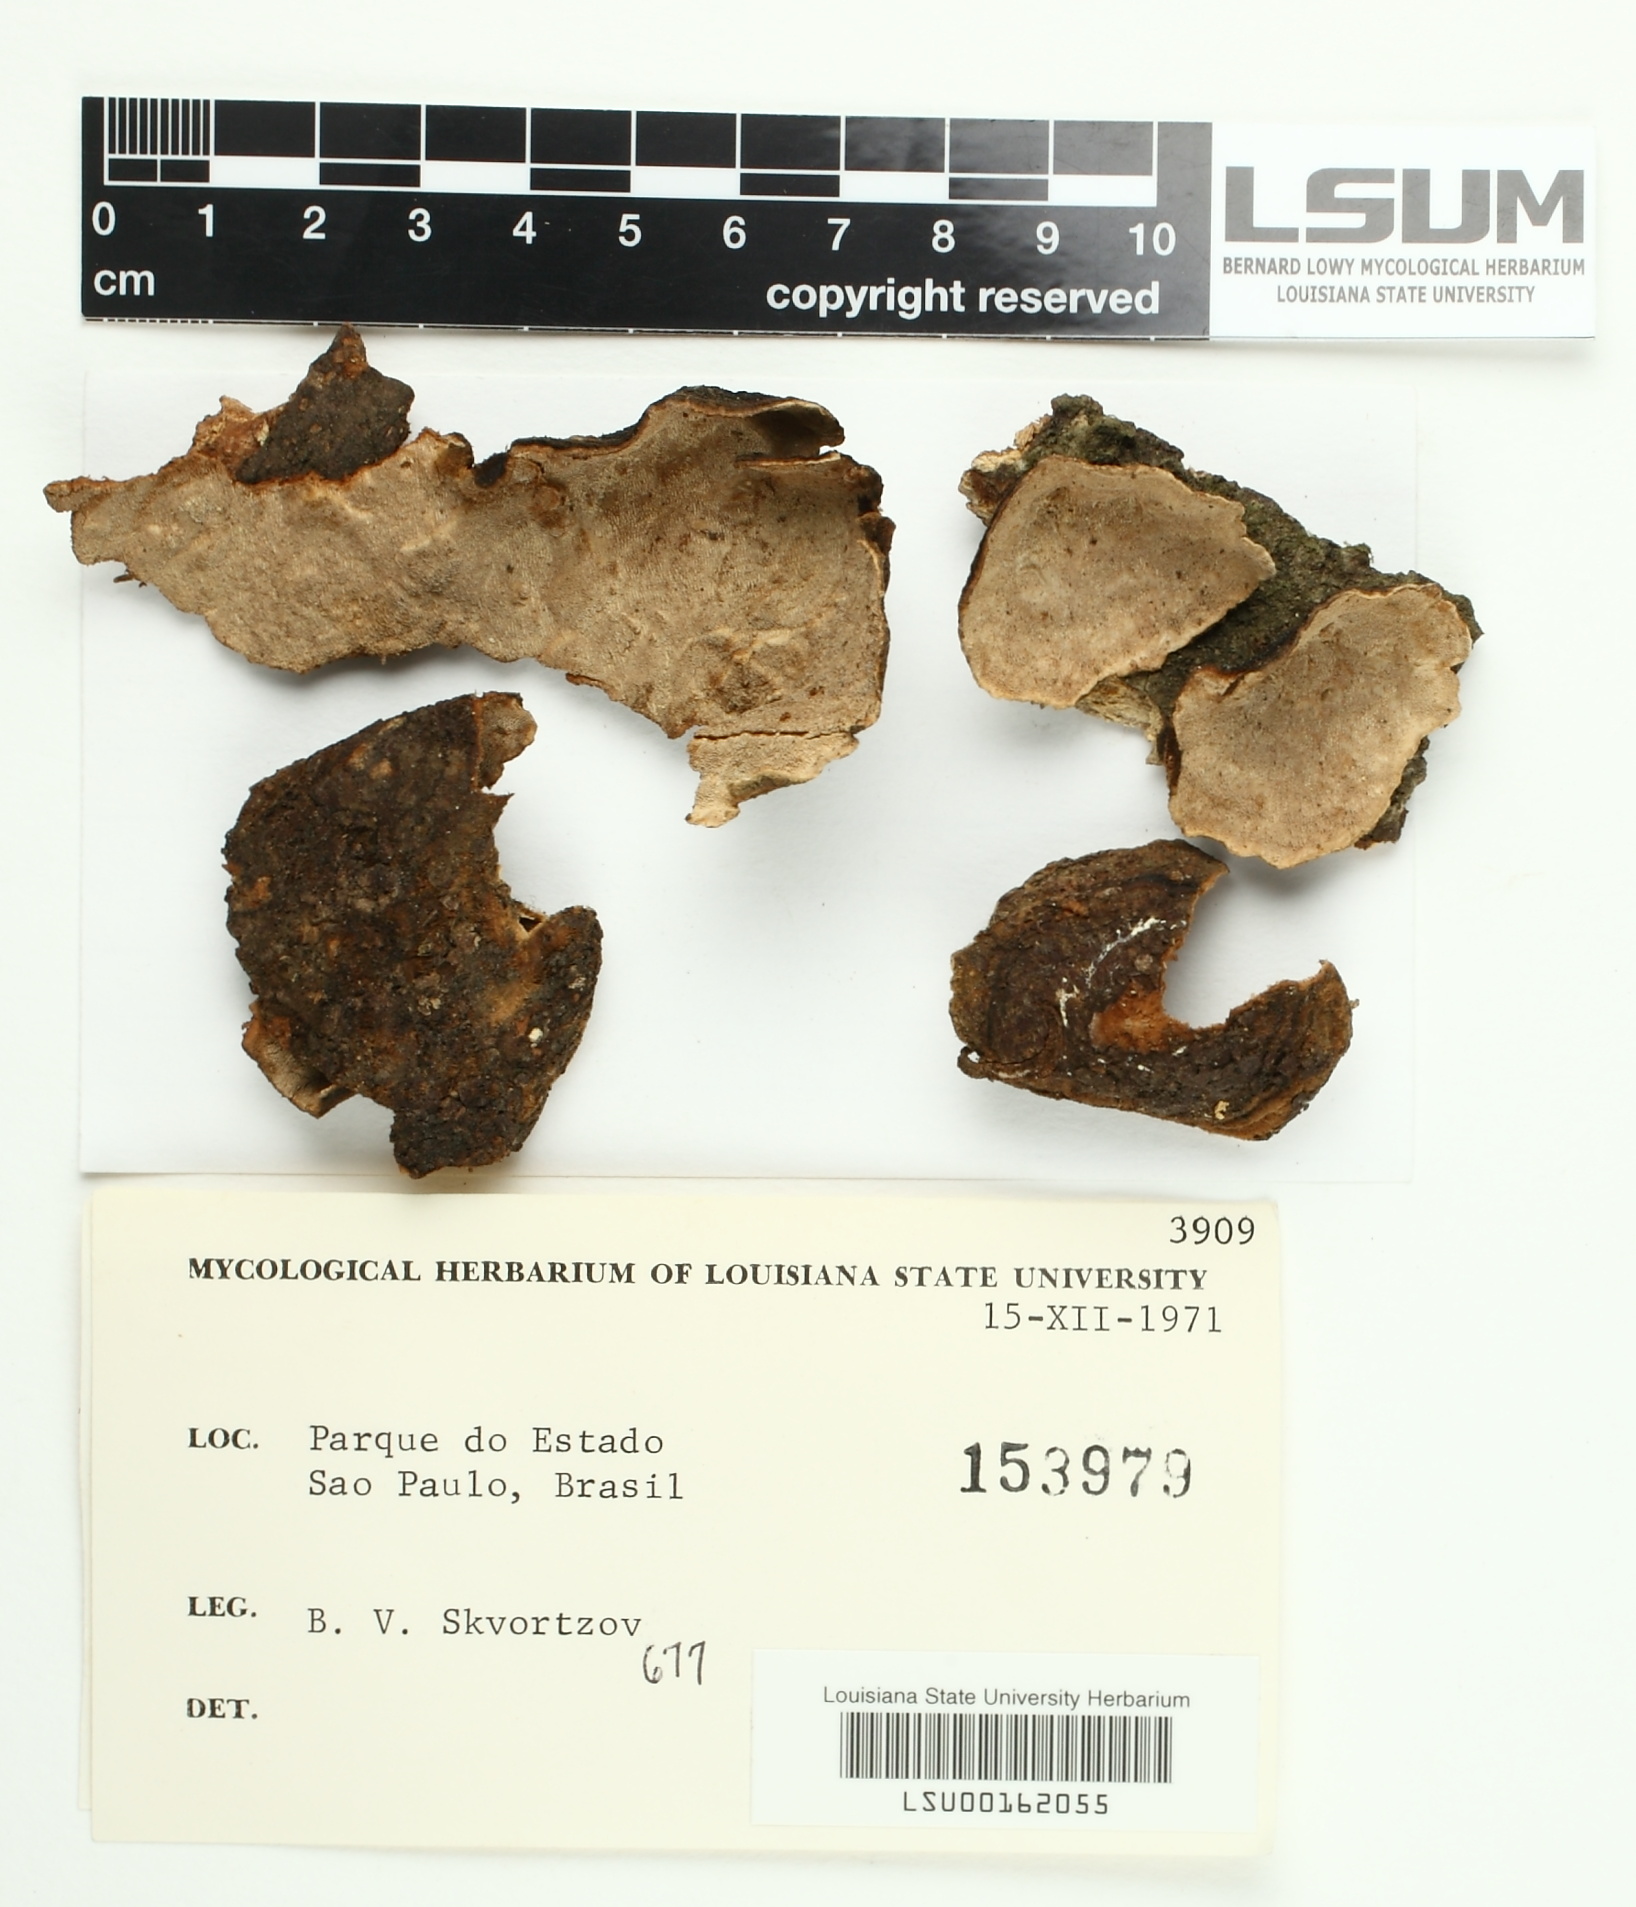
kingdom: Fungi
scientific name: Fungi
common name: Fungi
